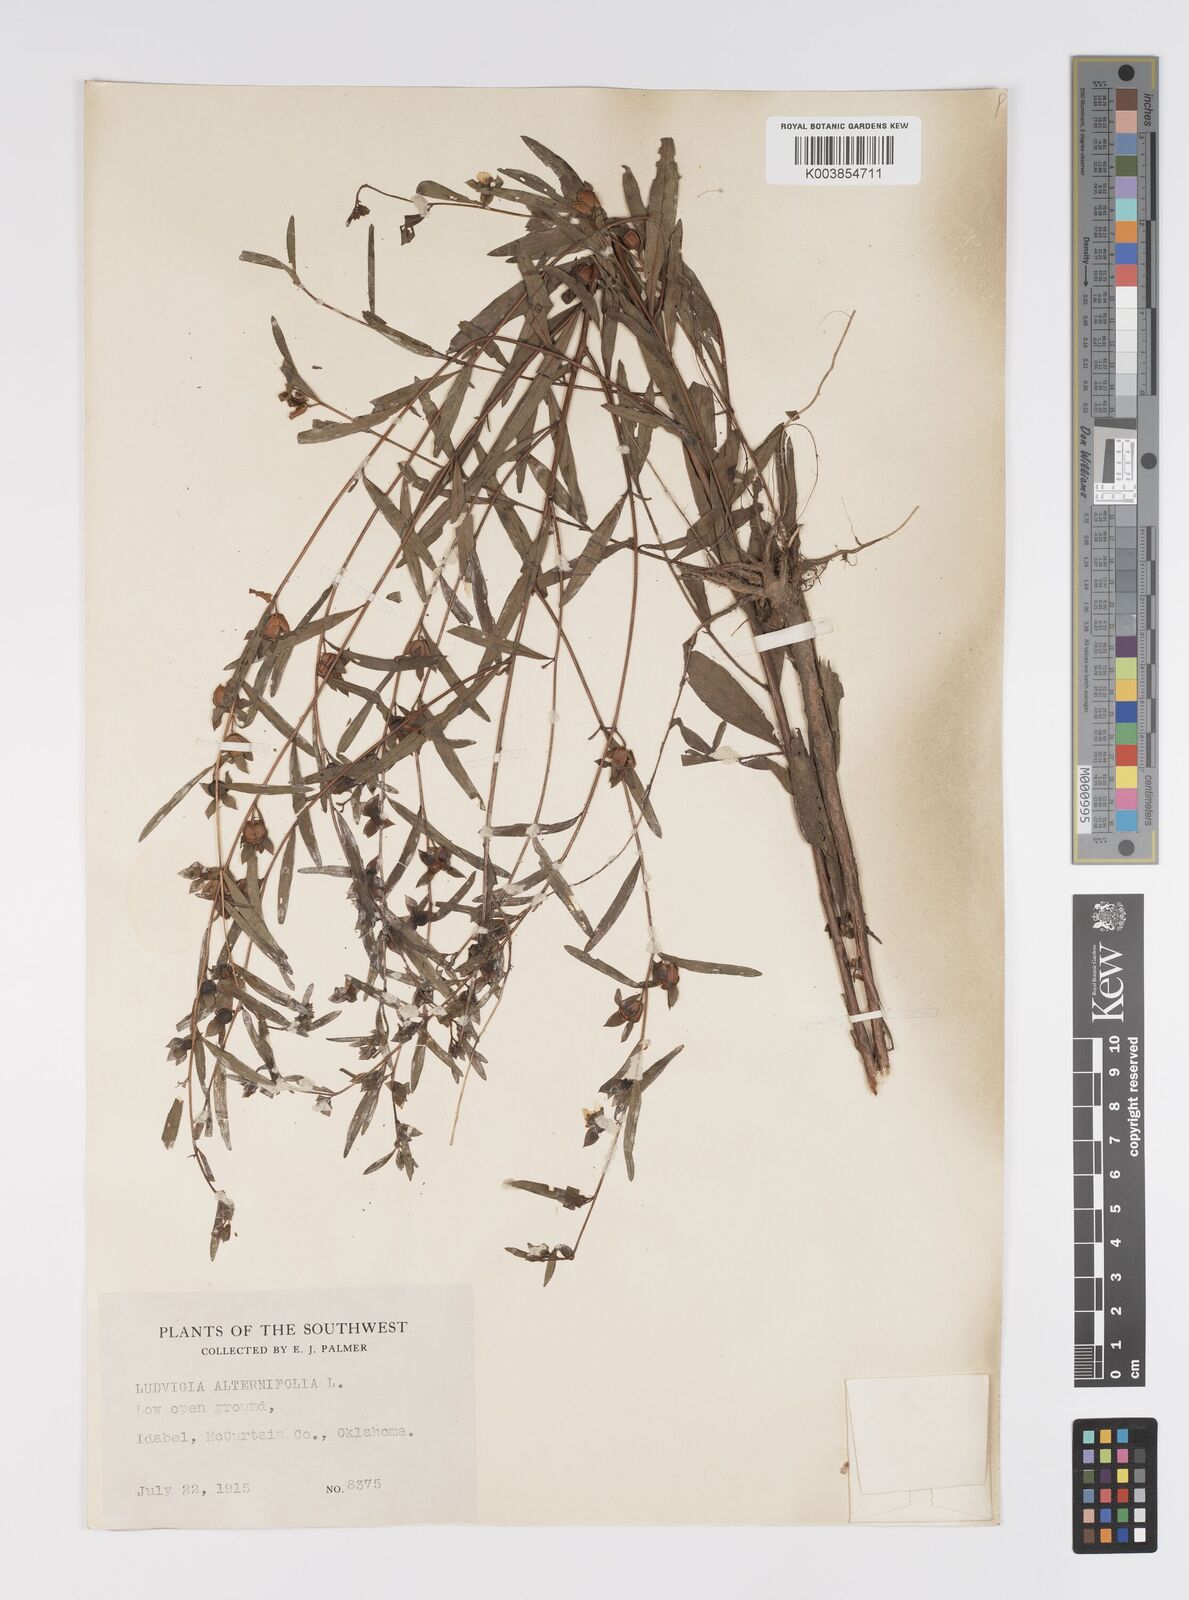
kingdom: Plantae
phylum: Tracheophyta
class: Magnoliopsida
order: Myrtales
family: Onagraceae
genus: Ludwigia
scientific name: Ludwigia alternifolia
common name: Rattlebox
